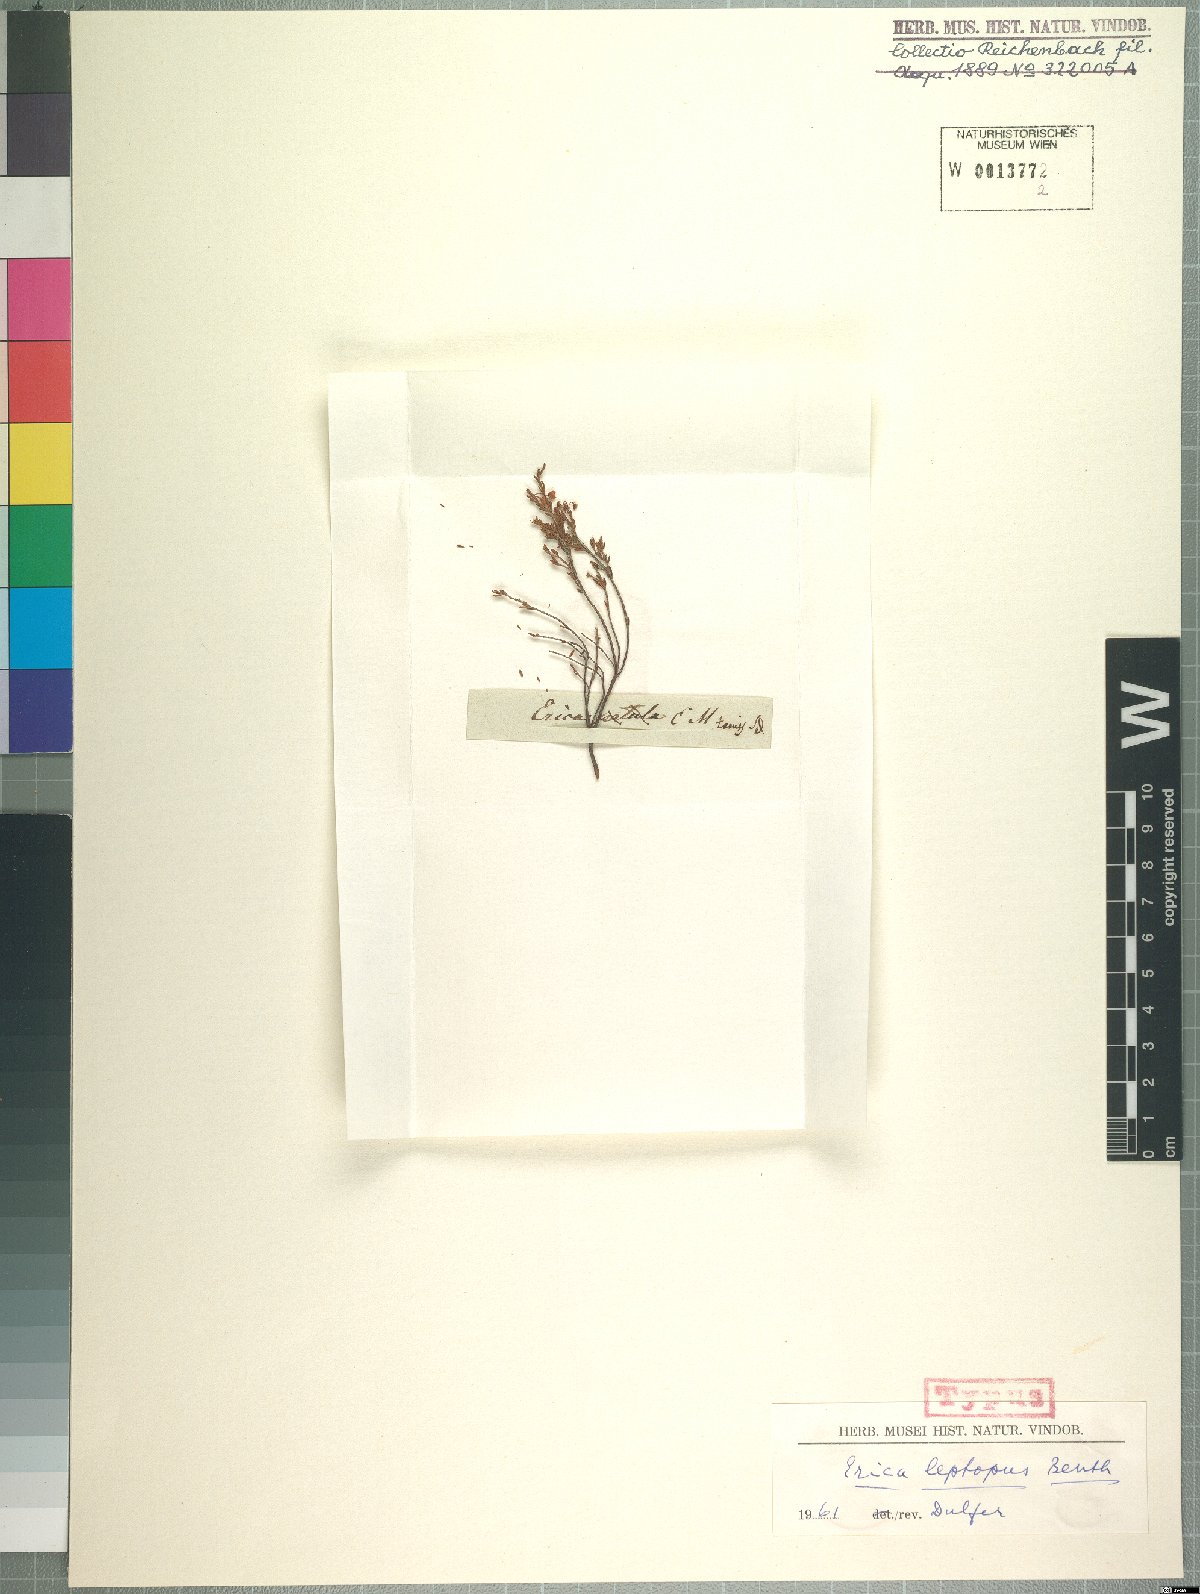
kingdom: Plantae
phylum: Tracheophyta
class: Magnoliopsida
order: Ericales
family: Ericaceae
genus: Erica
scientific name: Erica leptopus
